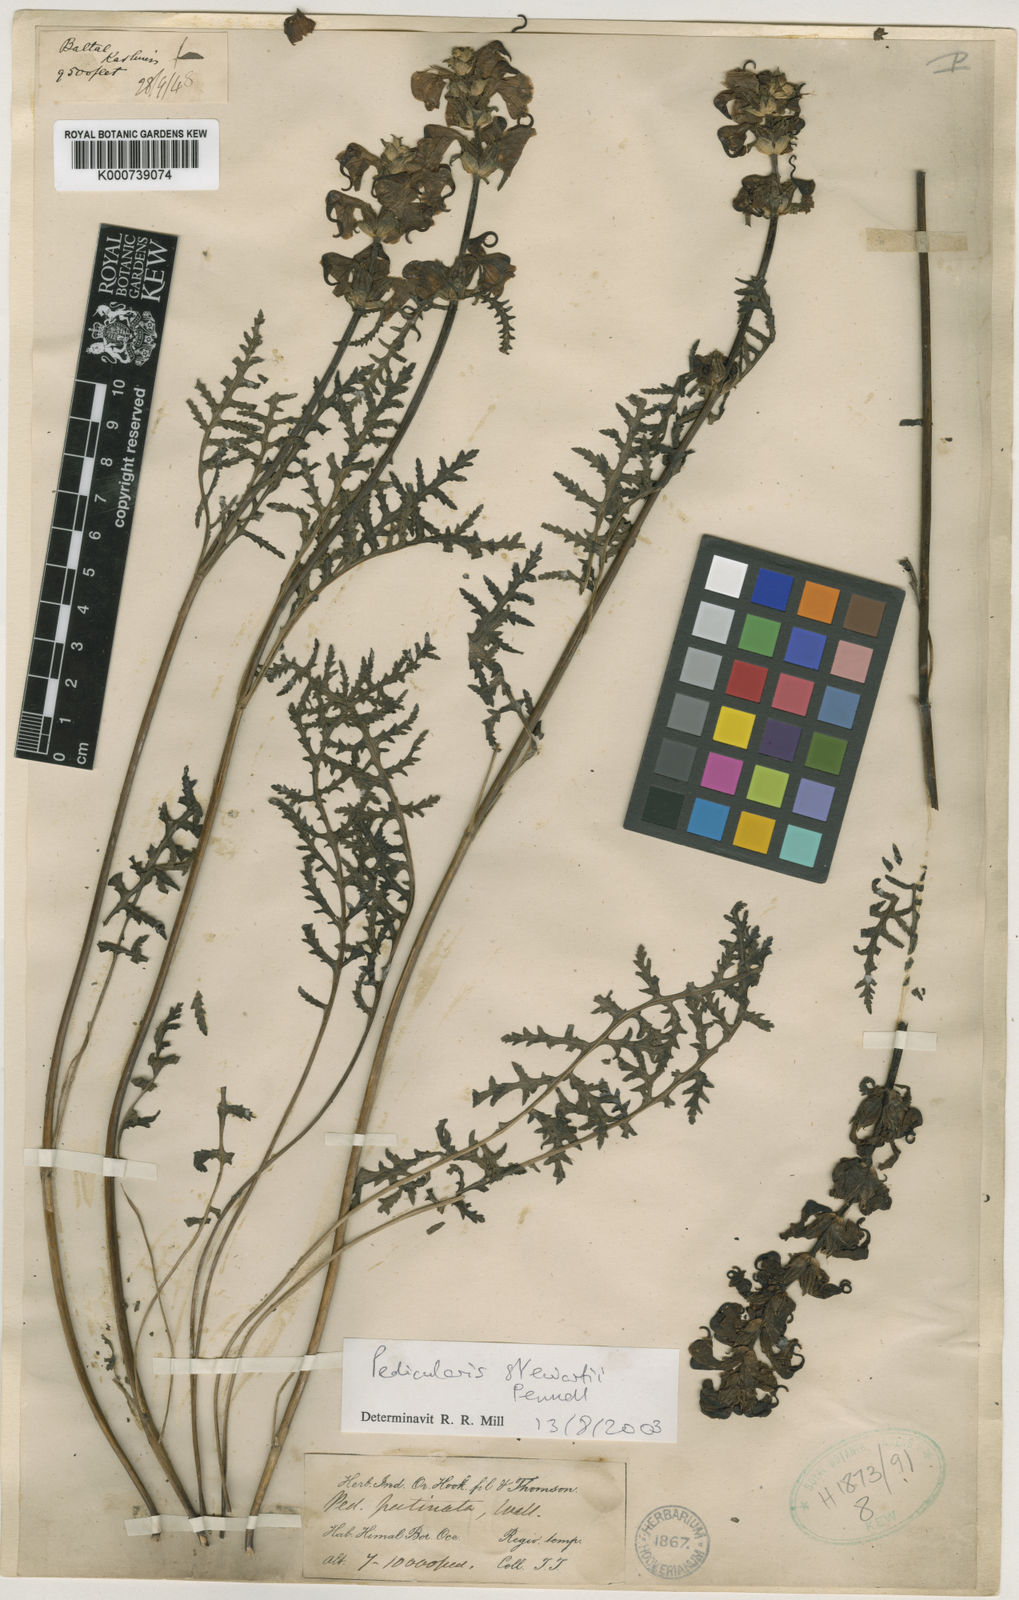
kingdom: Plantae
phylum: Tracheophyta
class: Magnoliopsida
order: Lamiales
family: Orobanchaceae
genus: Pedicularis
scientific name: Pedicularis stewartii
